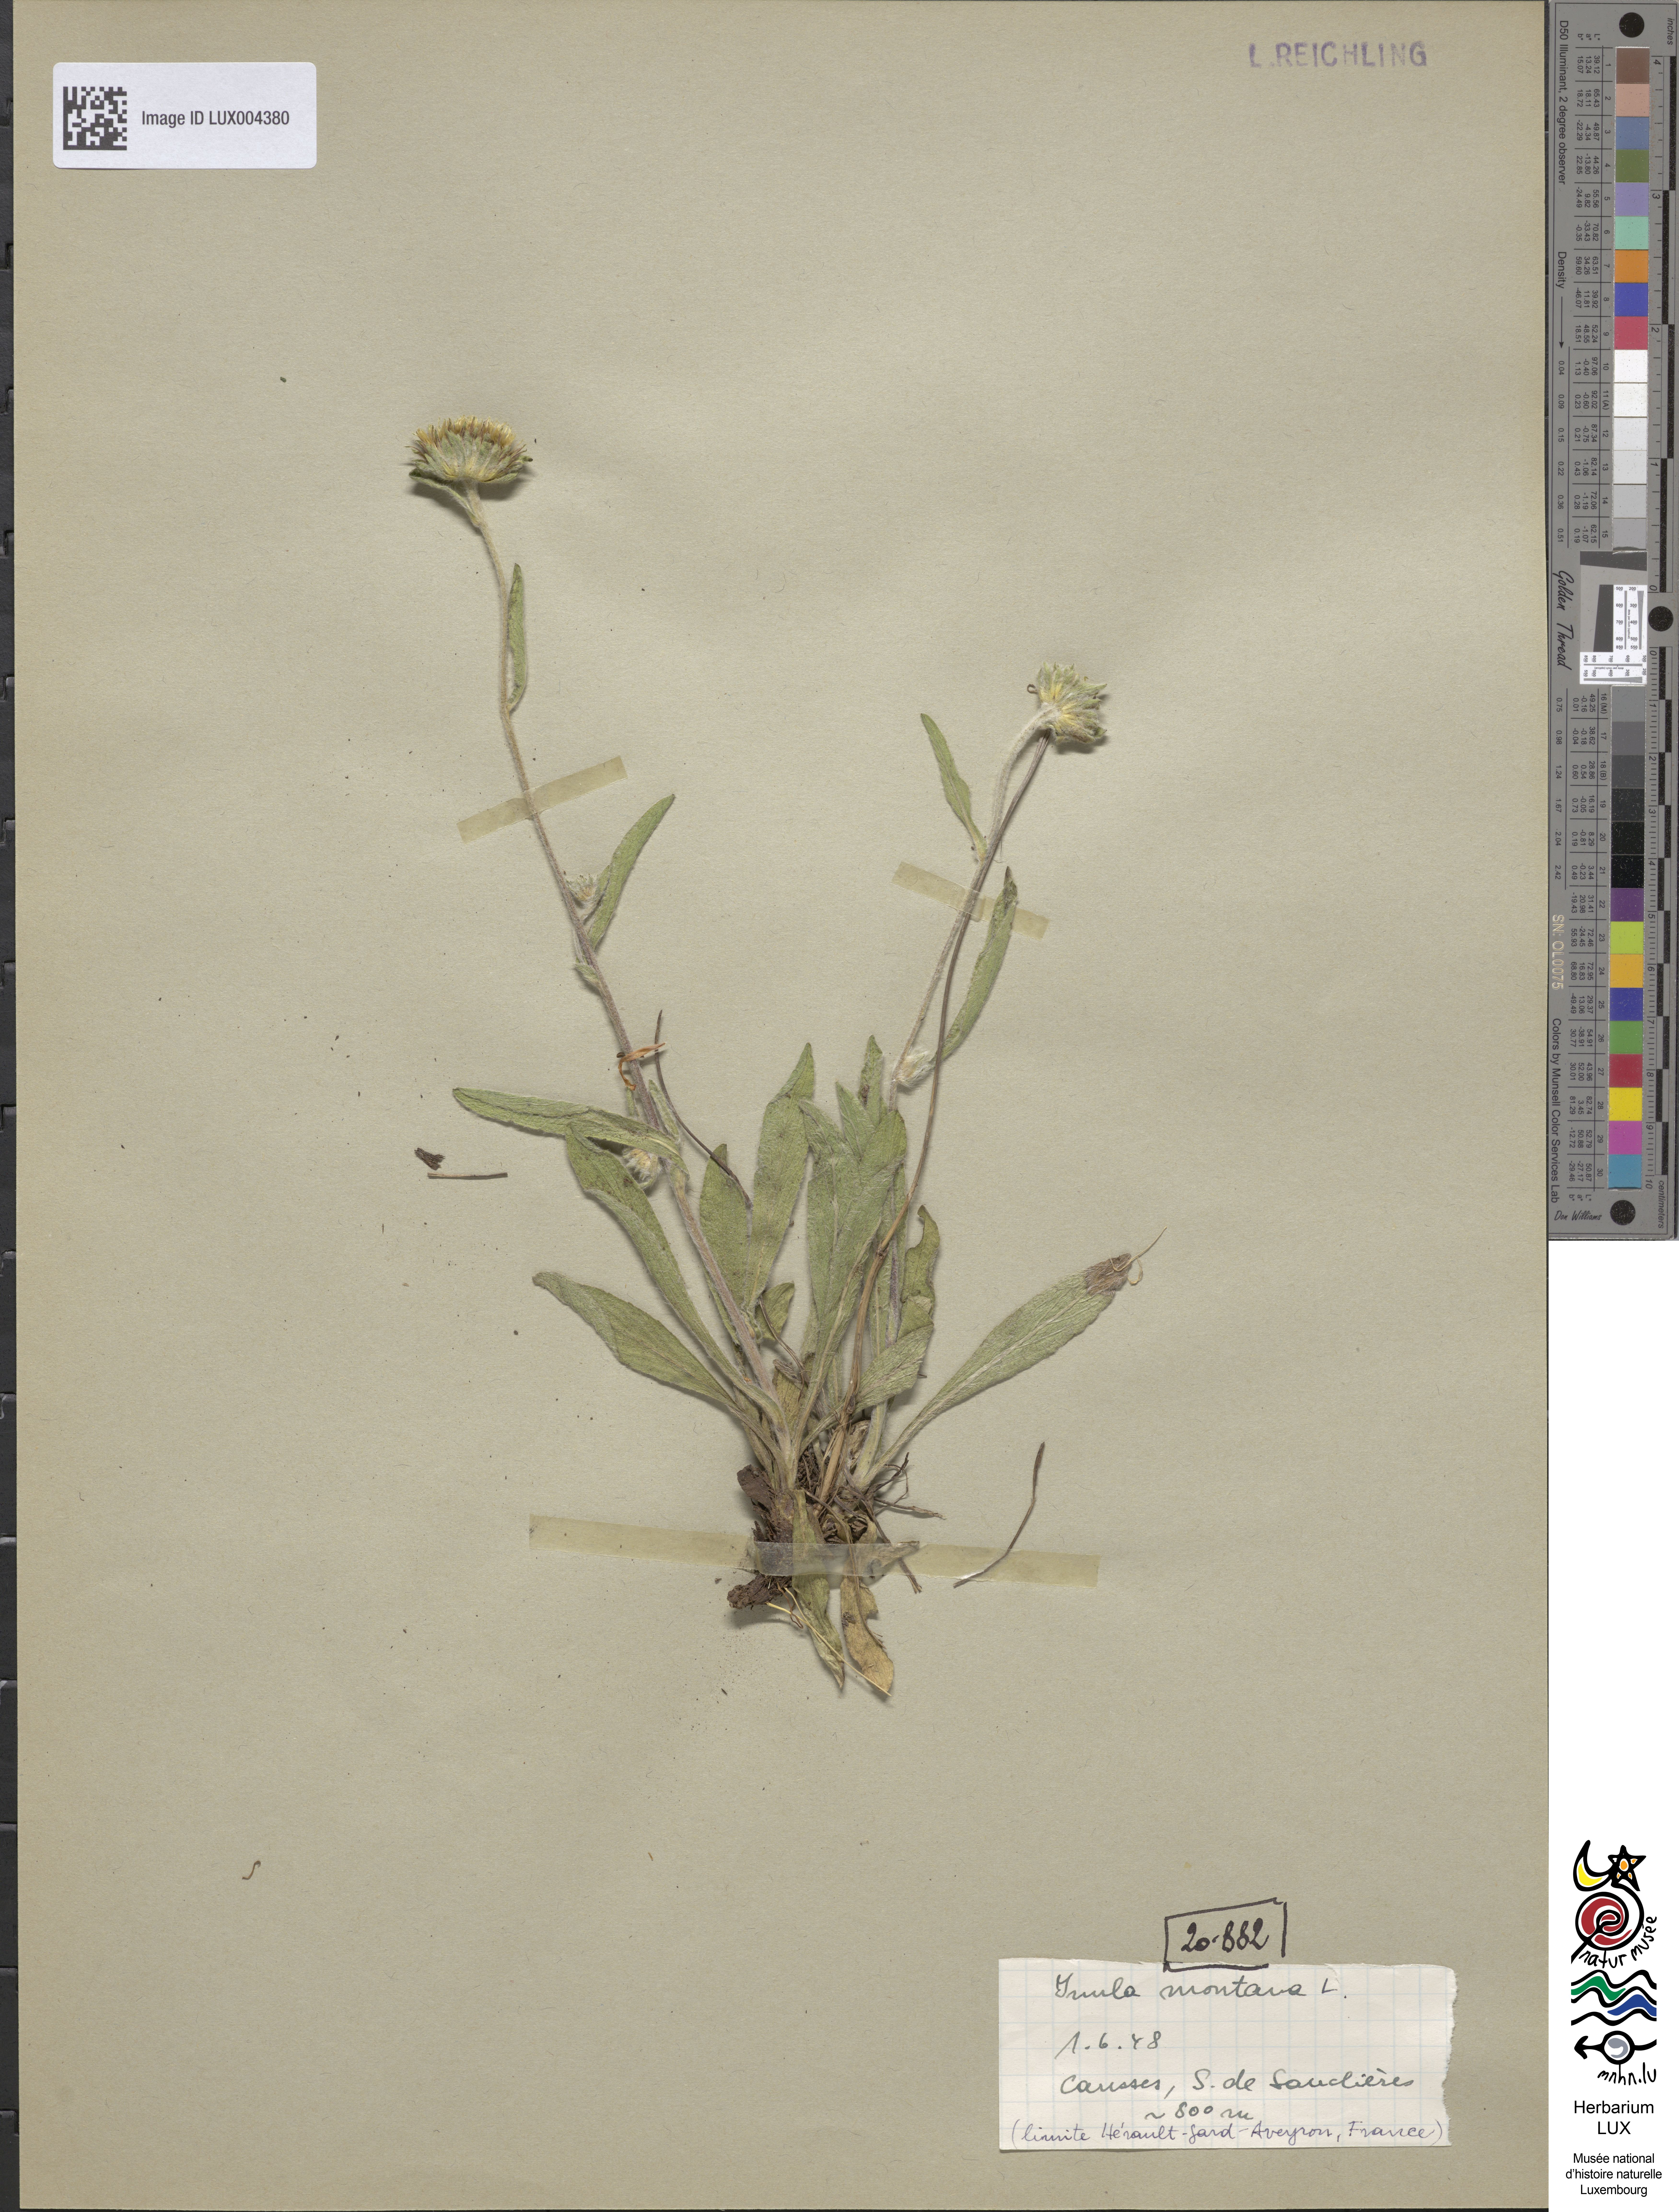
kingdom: Plantae
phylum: Tracheophyta
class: Magnoliopsida
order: Asterales
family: Asteraceae
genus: Pentanema
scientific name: Pentanema montanum
